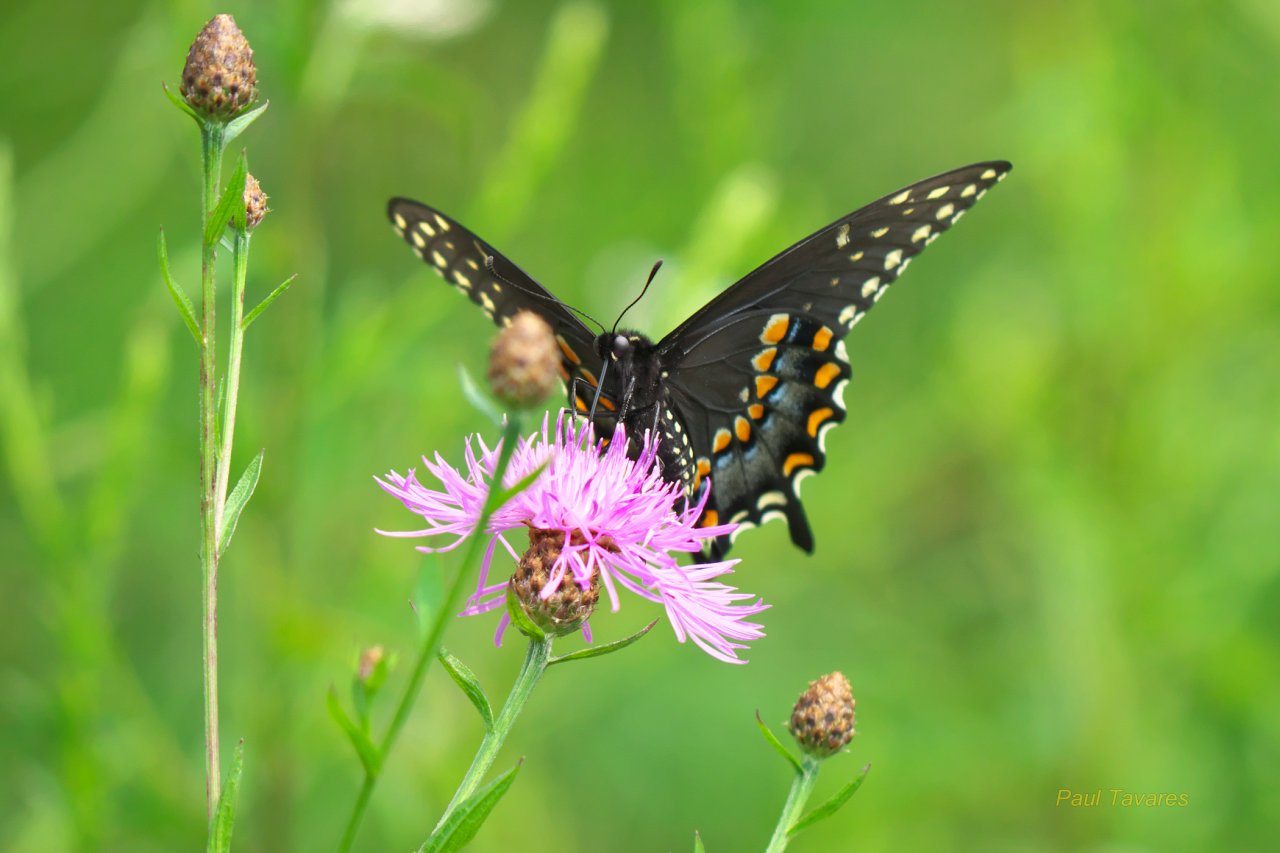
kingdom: Animalia
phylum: Arthropoda
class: Insecta
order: Lepidoptera
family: Papilionidae
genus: Papilio
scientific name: Papilio polyxenes
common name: Black Swallowtail
